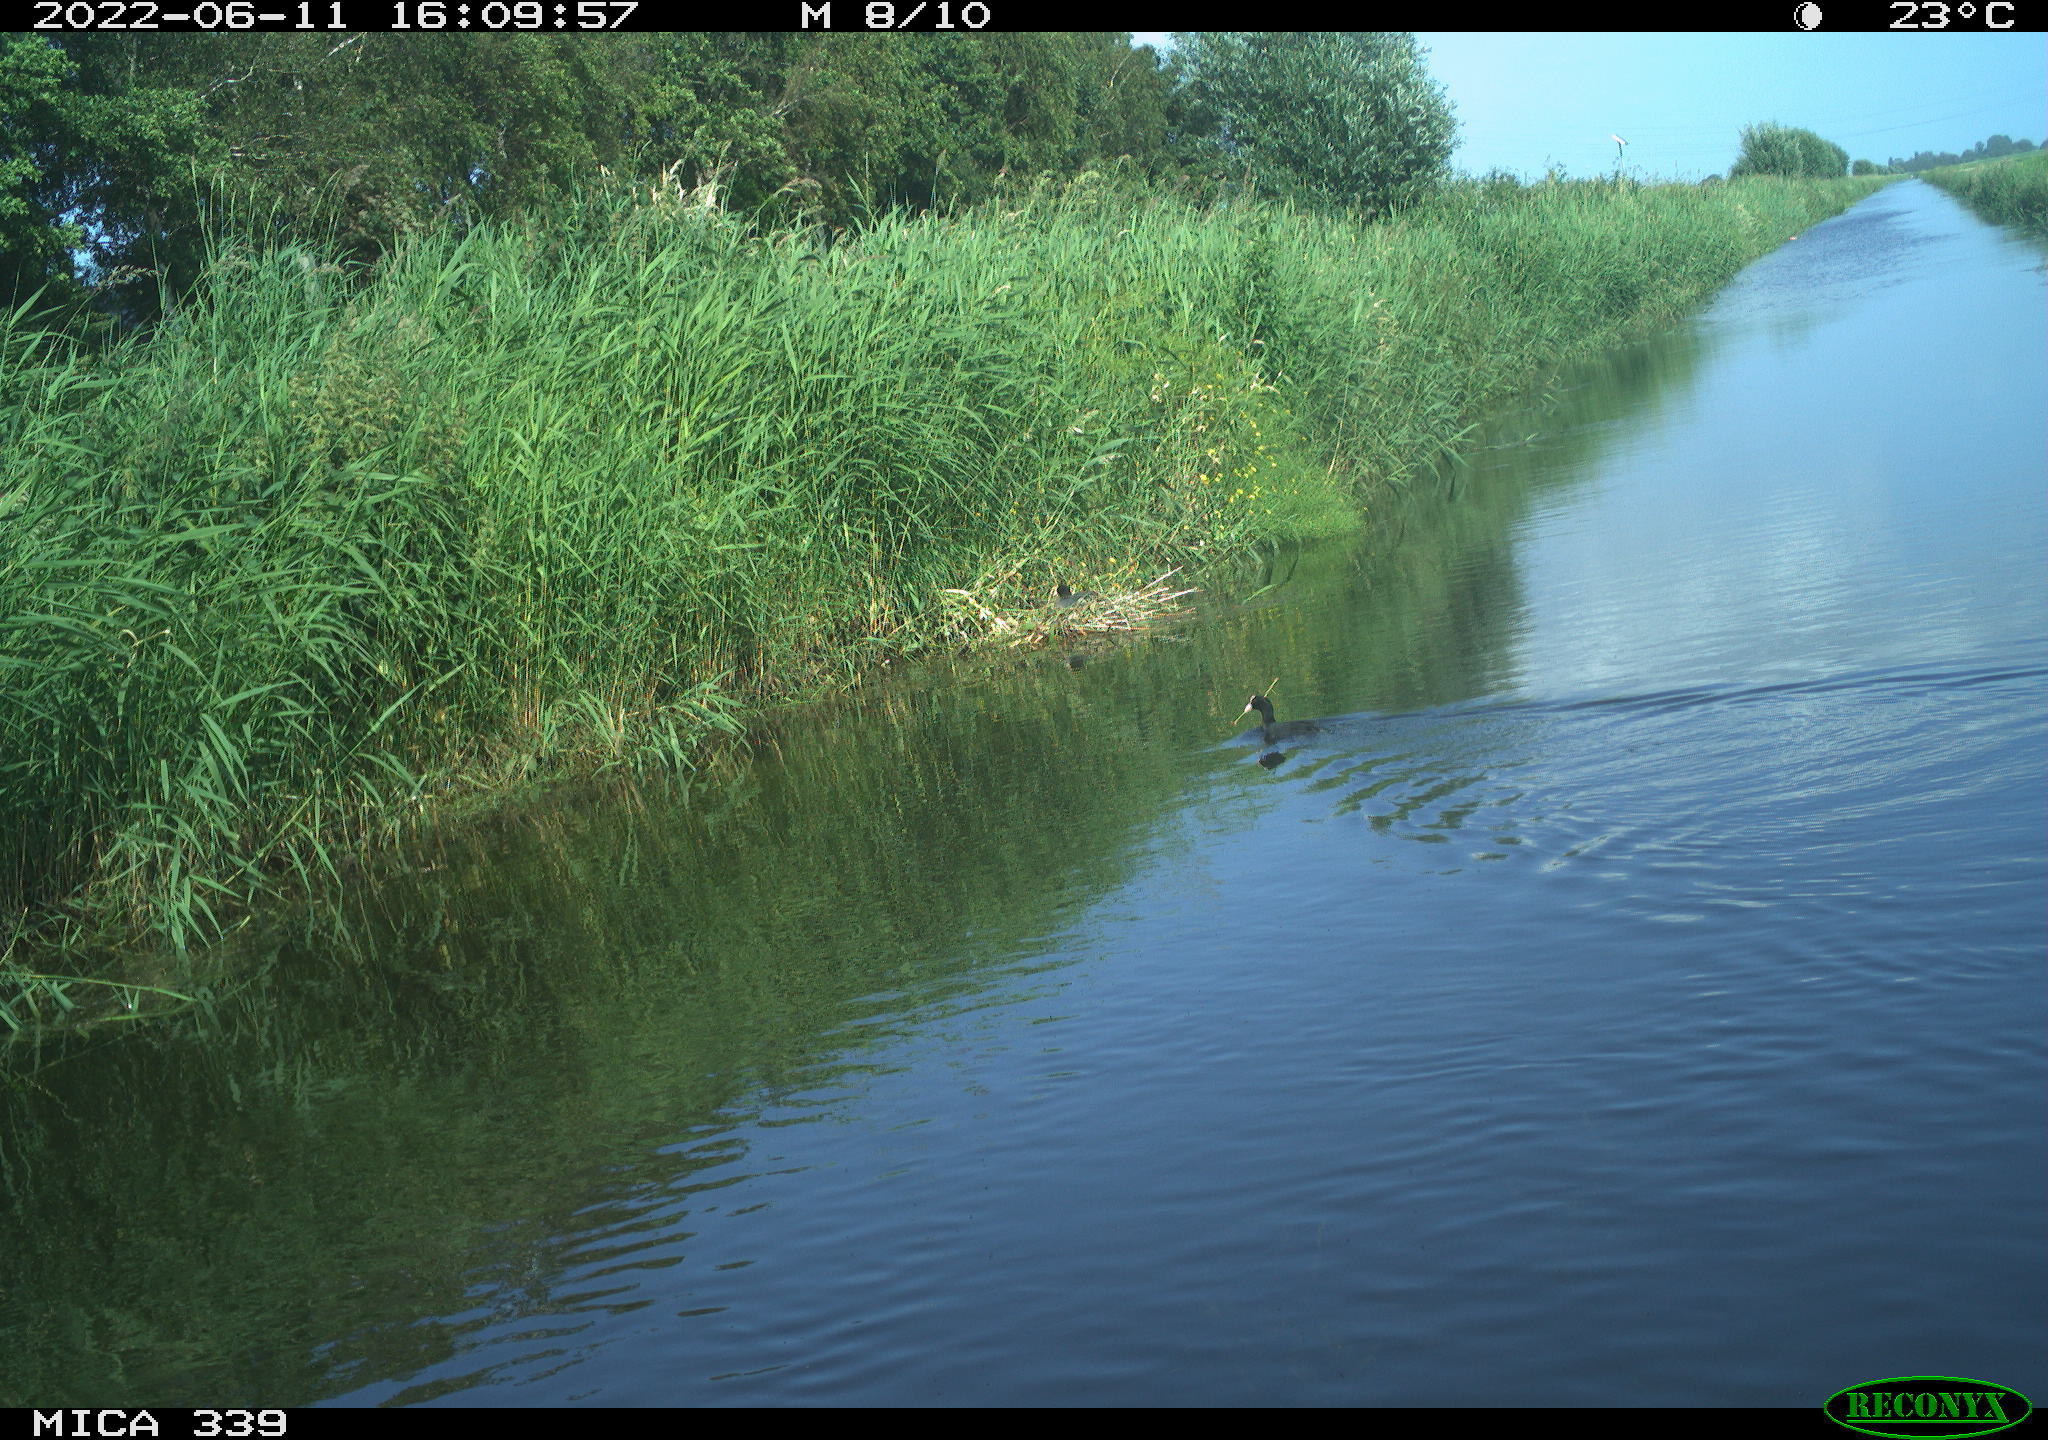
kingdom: Animalia
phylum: Chordata
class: Aves
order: Gruiformes
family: Rallidae
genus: Fulica
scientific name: Fulica atra
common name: Eurasian coot
